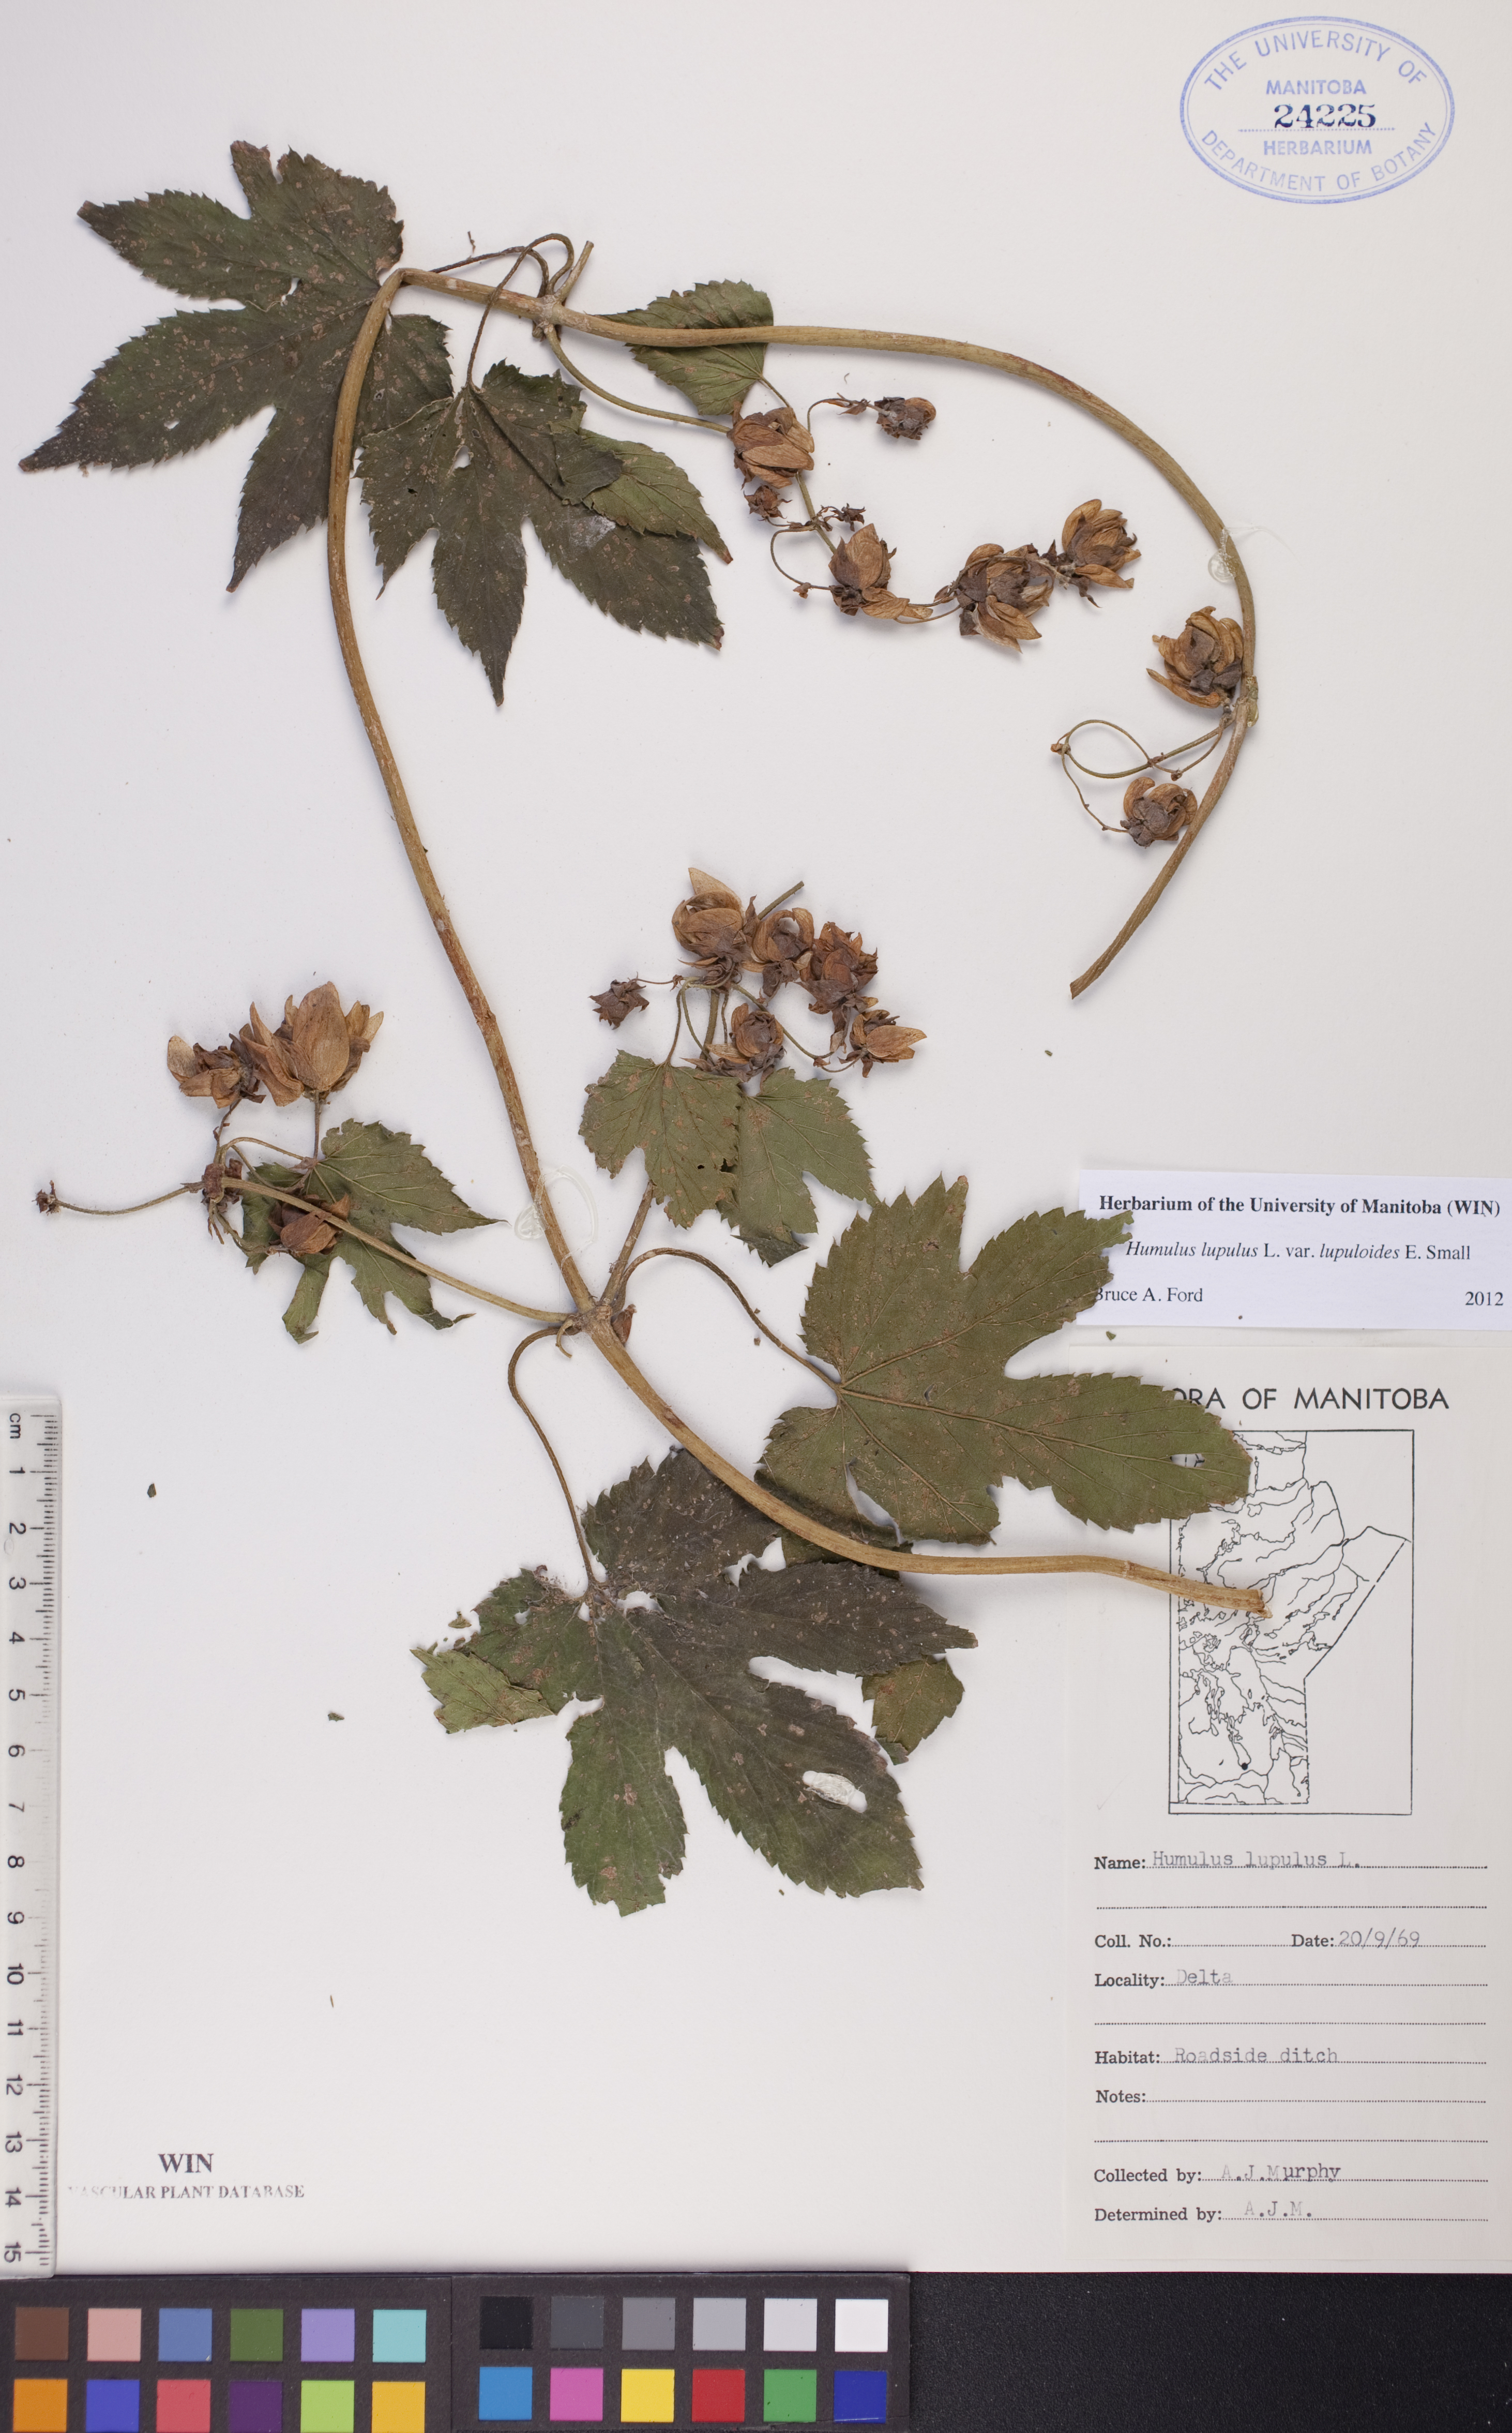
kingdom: Plantae
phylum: Tracheophyta
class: Magnoliopsida
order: Rosales
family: Cannabaceae
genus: Humulus
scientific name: Humulus americanus
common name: American hops
